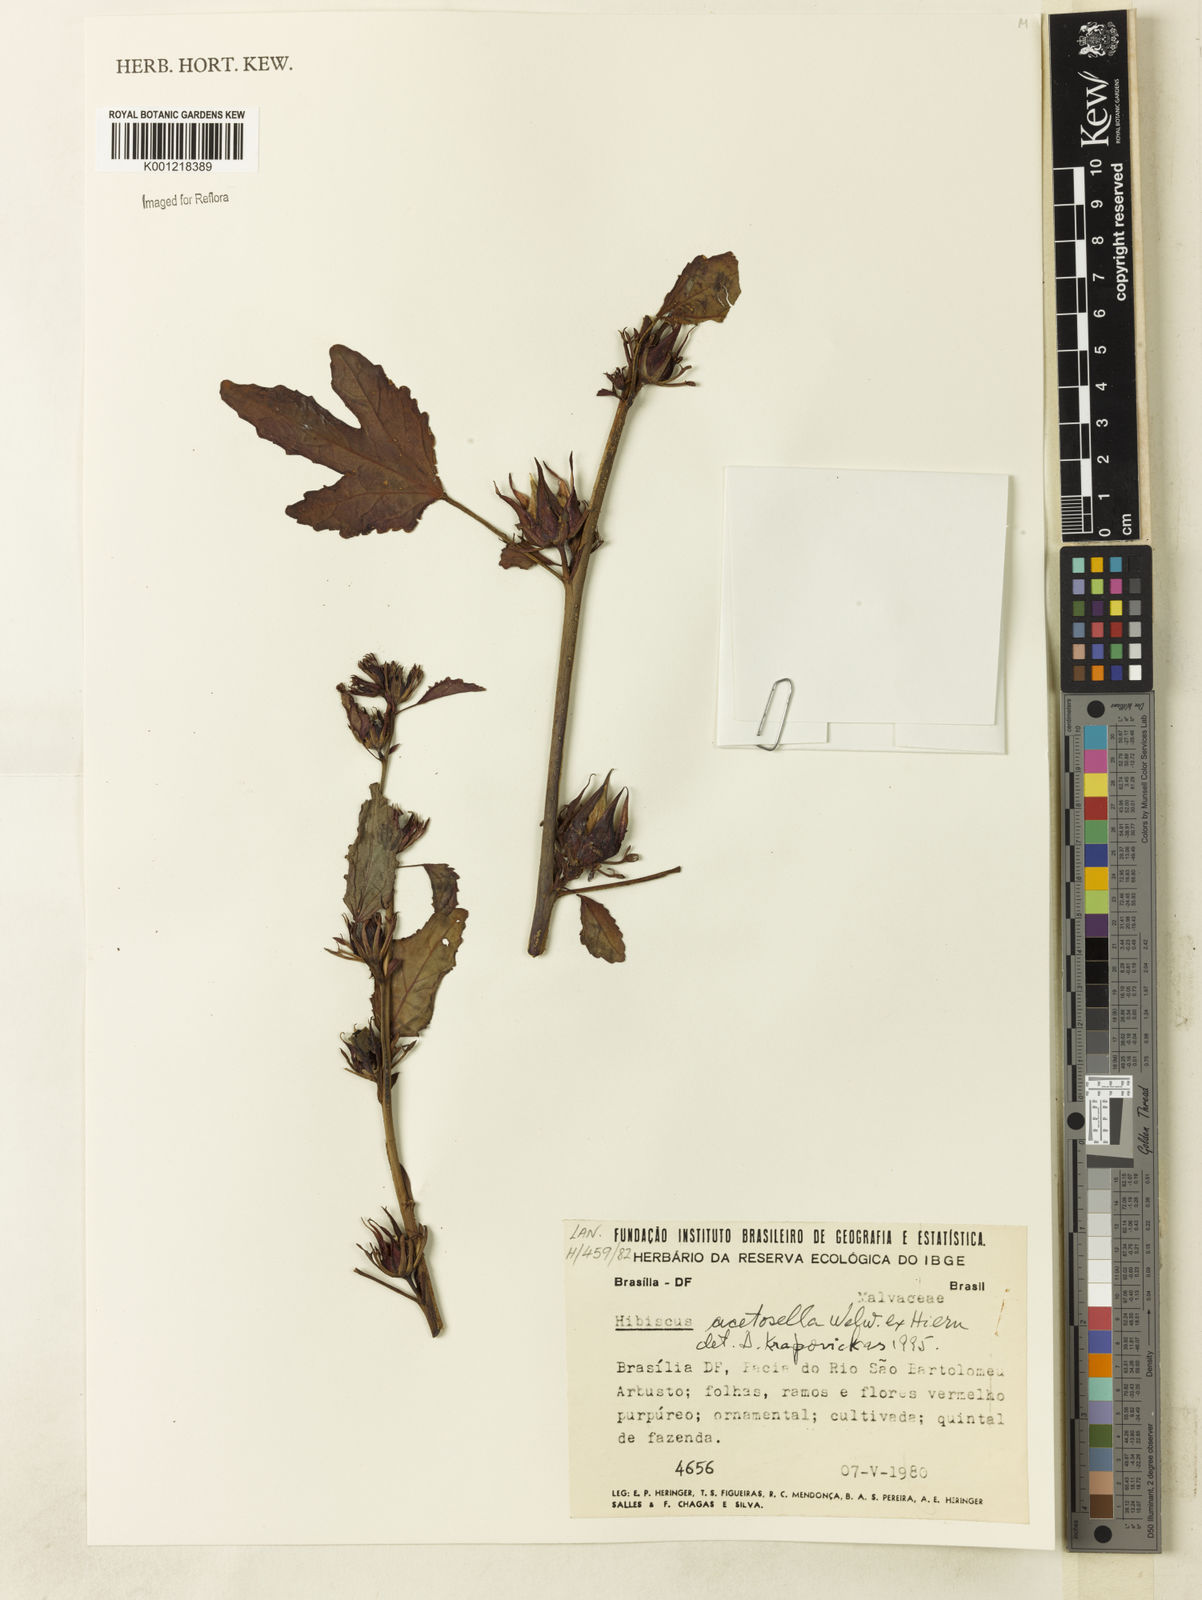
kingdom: Plantae
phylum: Tracheophyta
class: Magnoliopsida
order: Malvales
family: Malvaceae
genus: Hibiscus
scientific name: Hibiscus
